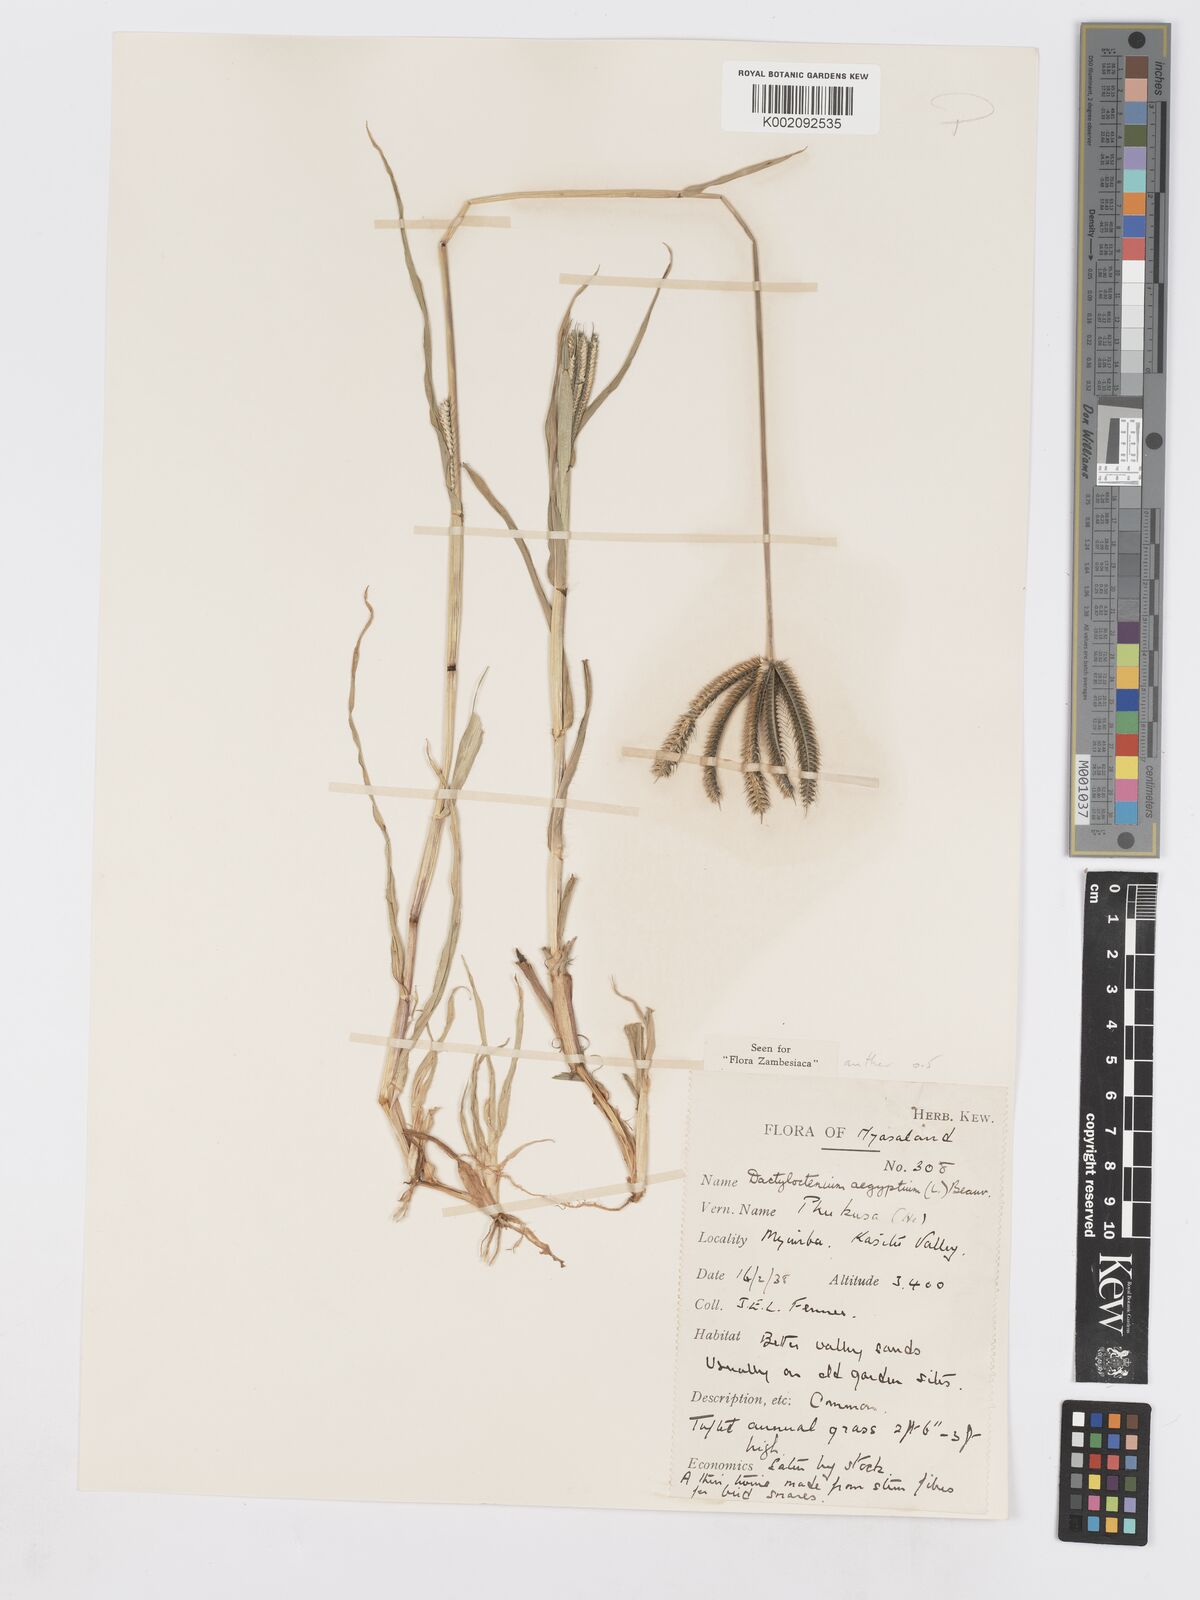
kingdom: Plantae
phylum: Tracheophyta
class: Liliopsida
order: Poales
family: Poaceae
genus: Dactyloctenium
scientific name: Dactyloctenium aegyptium
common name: Egyptian grass
